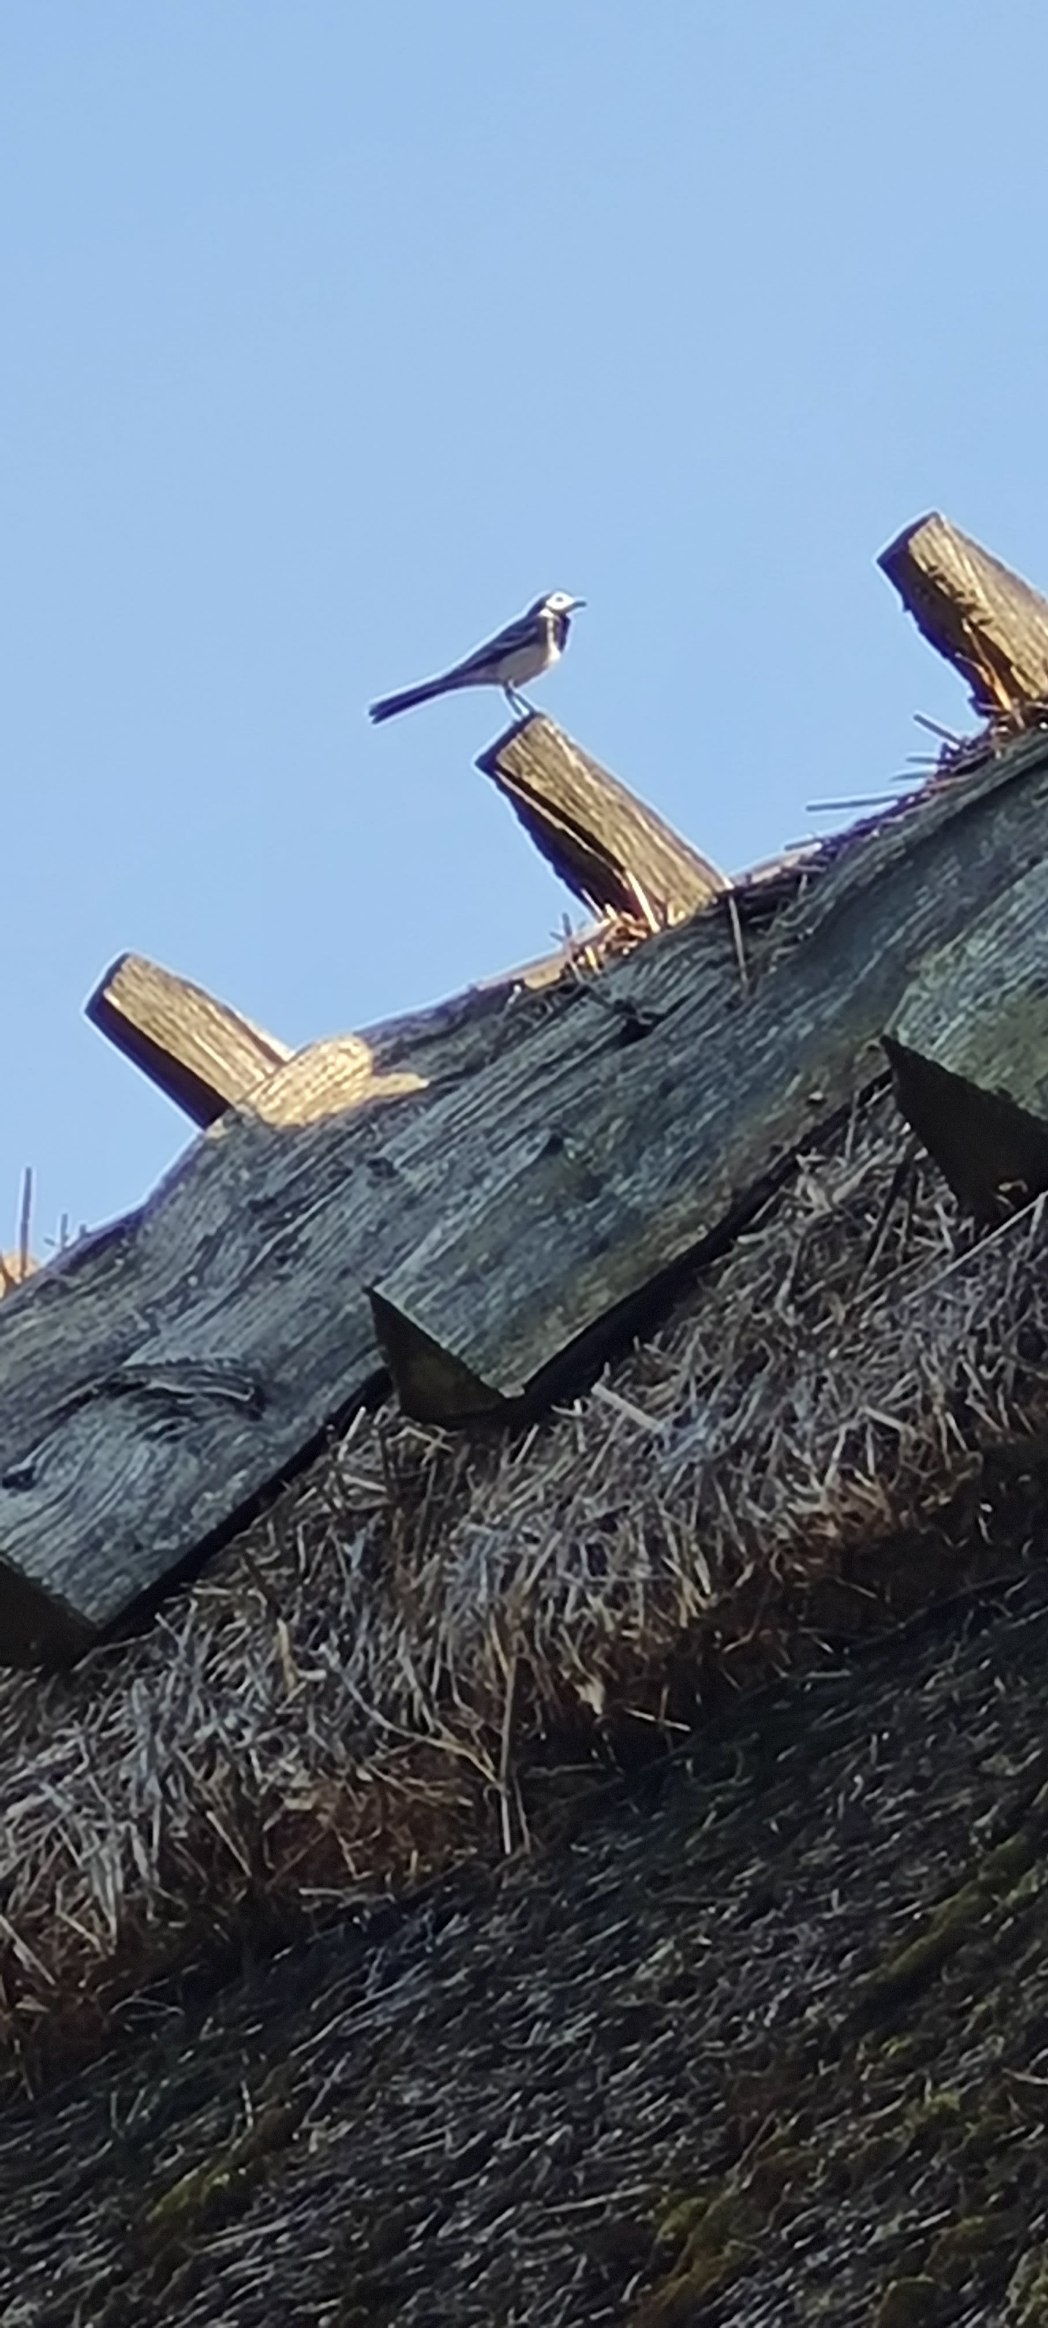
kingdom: Animalia
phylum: Chordata
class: Aves
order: Passeriformes
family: Motacillidae
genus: Motacilla
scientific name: Motacilla alba
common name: Hvid vipstjert
